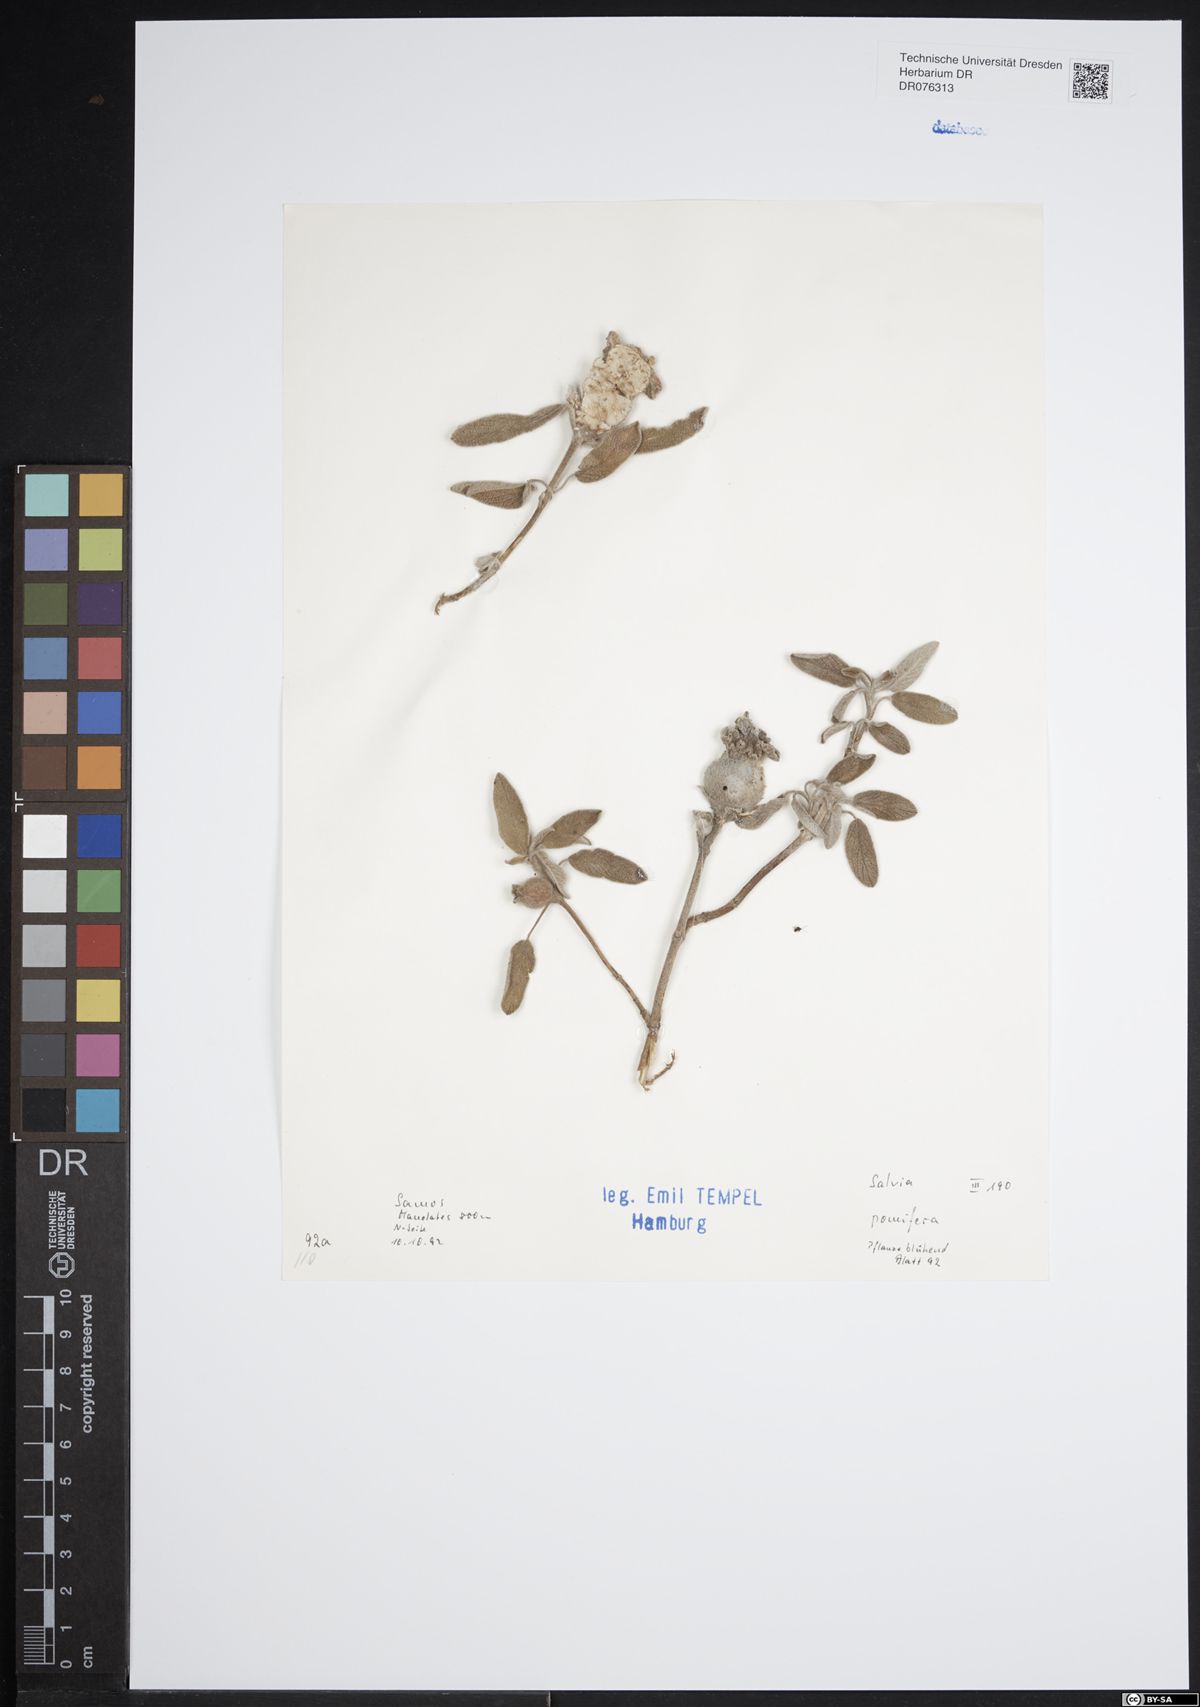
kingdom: Plantae
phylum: Tracheophyta
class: Magnoliopsida
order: Lamiales
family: Lamiaceae
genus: Salvia
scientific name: Salvia pomifera
